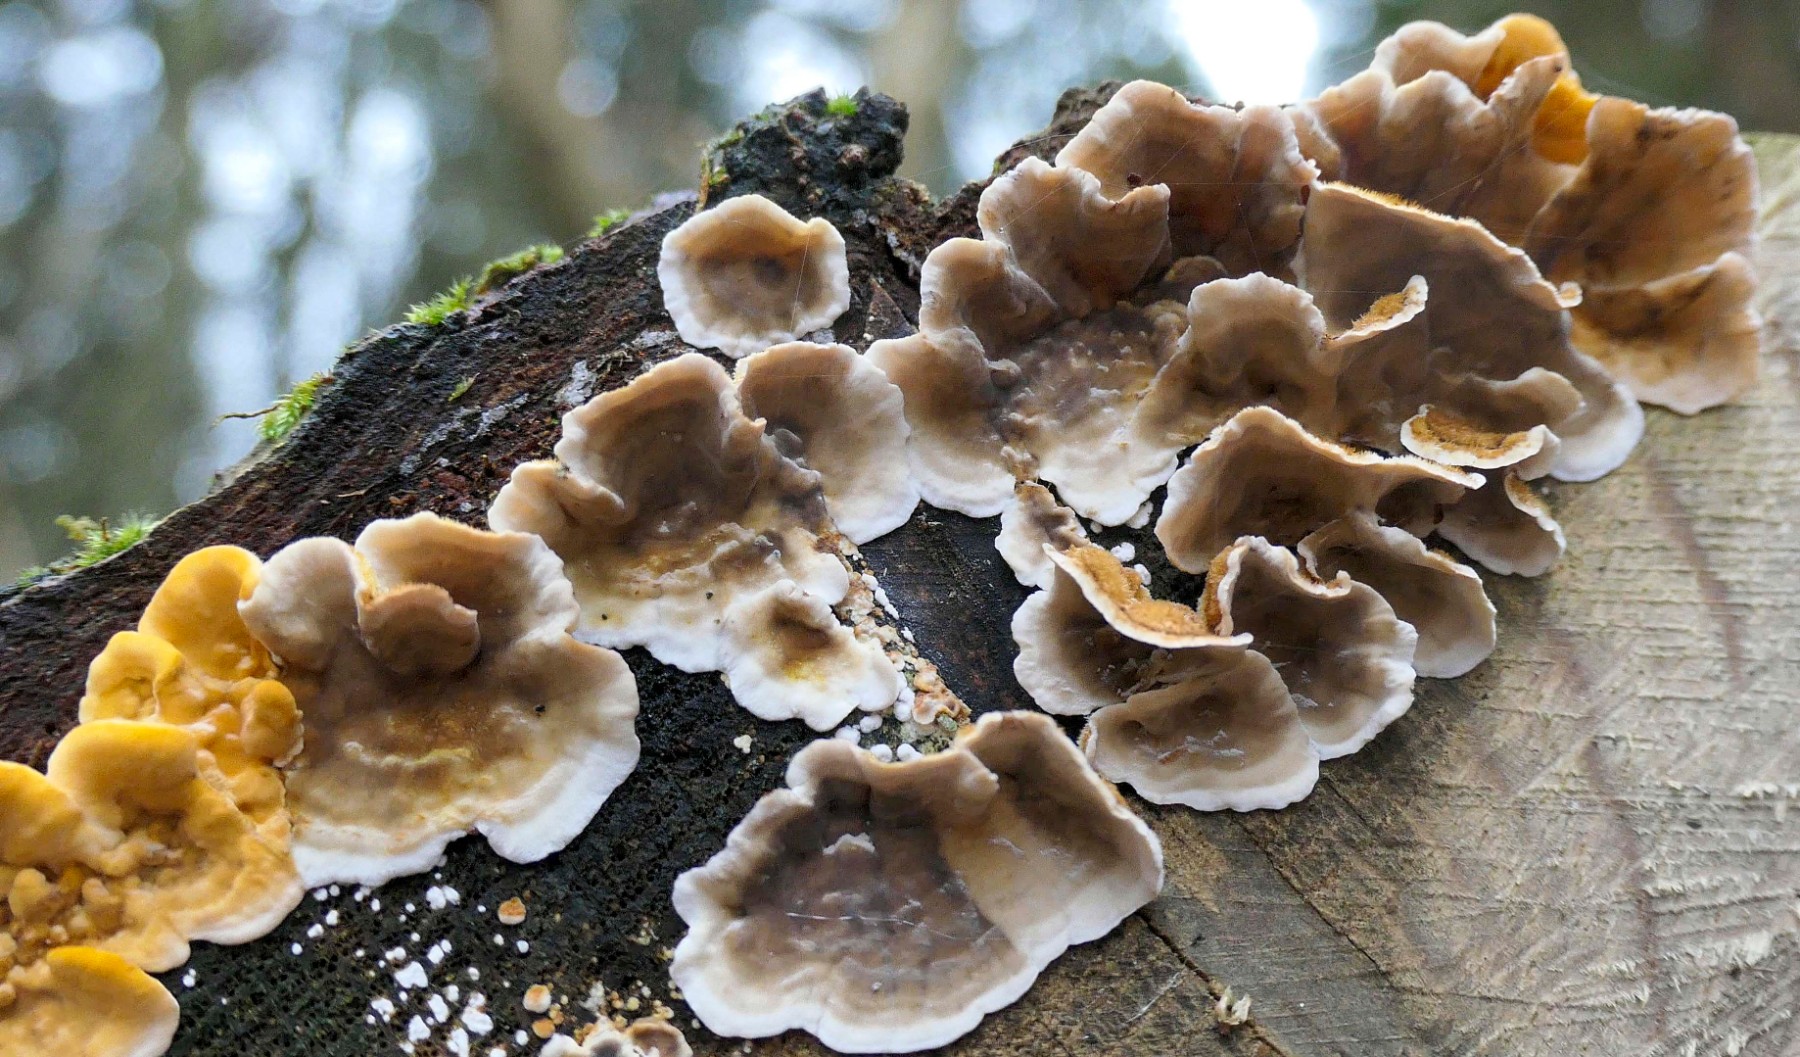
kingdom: Fungi
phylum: Basidiomycota
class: Agaricomycetes
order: Russulales
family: Stereaceae
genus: Stereum
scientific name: Stereum gausapatum
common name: tynd lædersvamp
